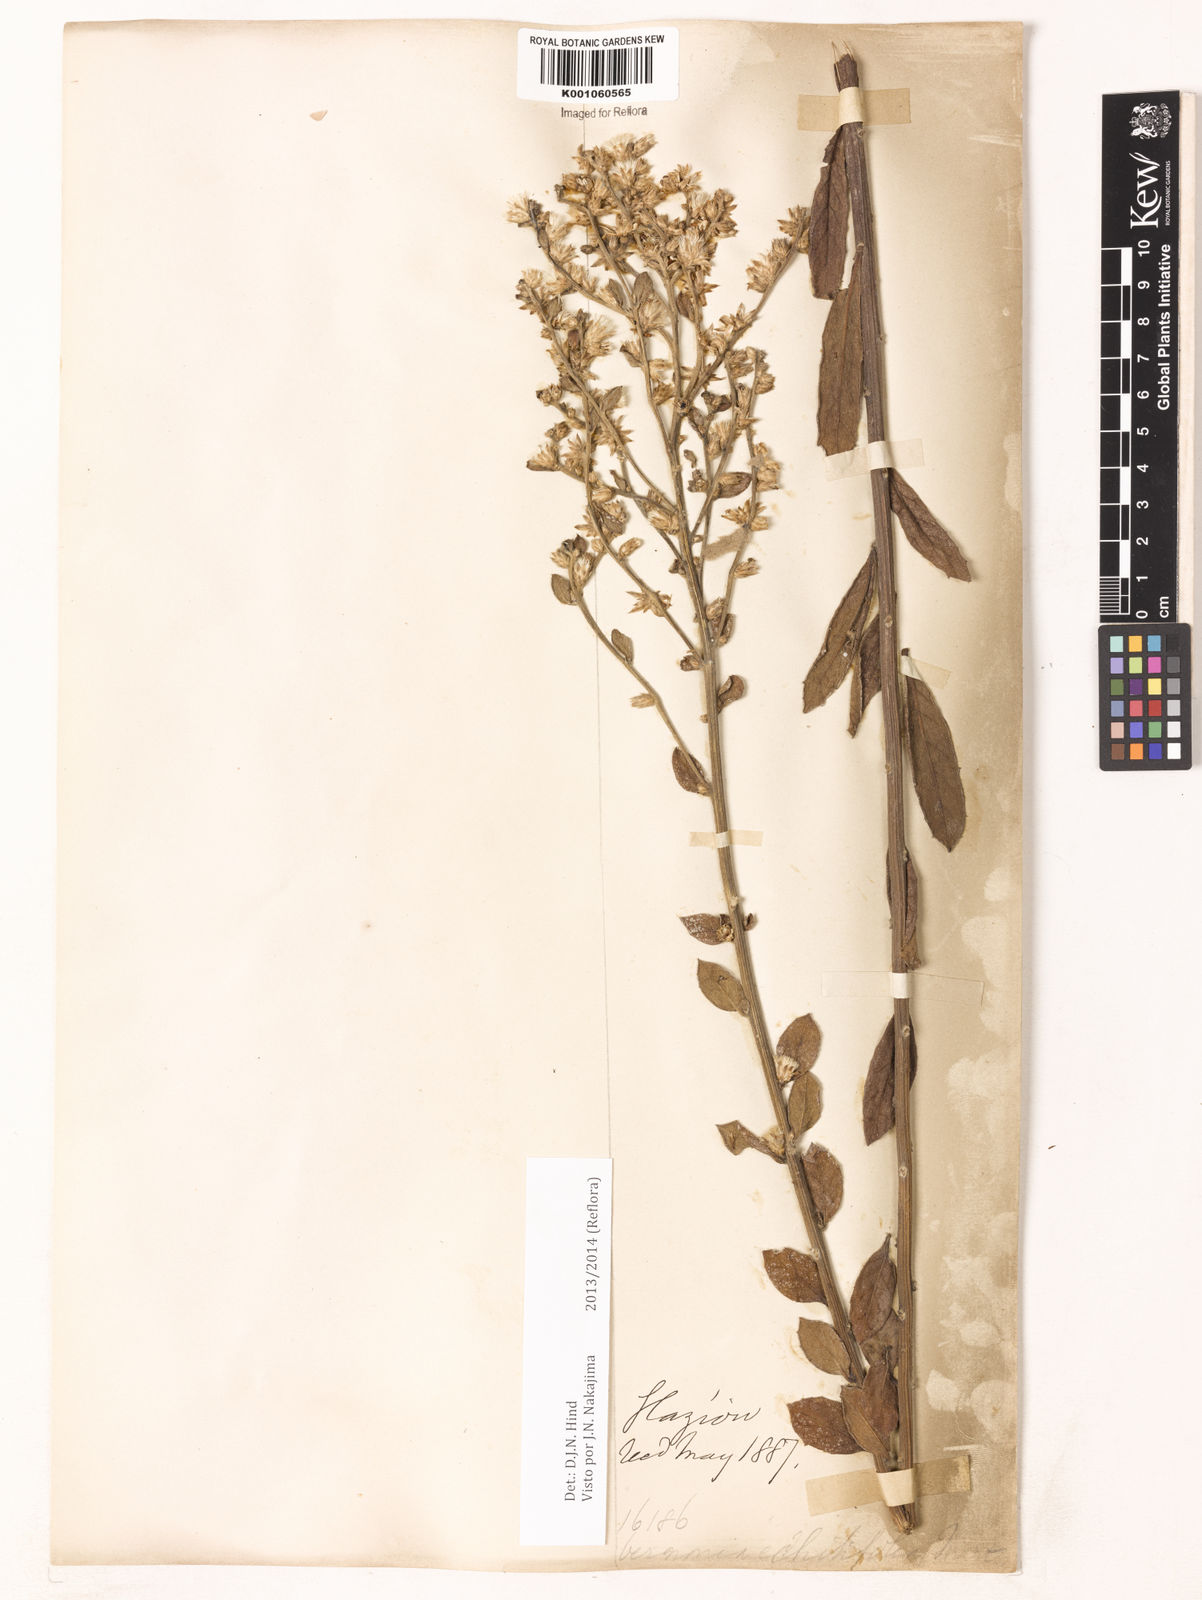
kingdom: Plantae
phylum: Tracheophyta
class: Magnoliopsida
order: Asterales
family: Asteraceae
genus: Acilepidopsis
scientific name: Acilepidopsis echitifolia
